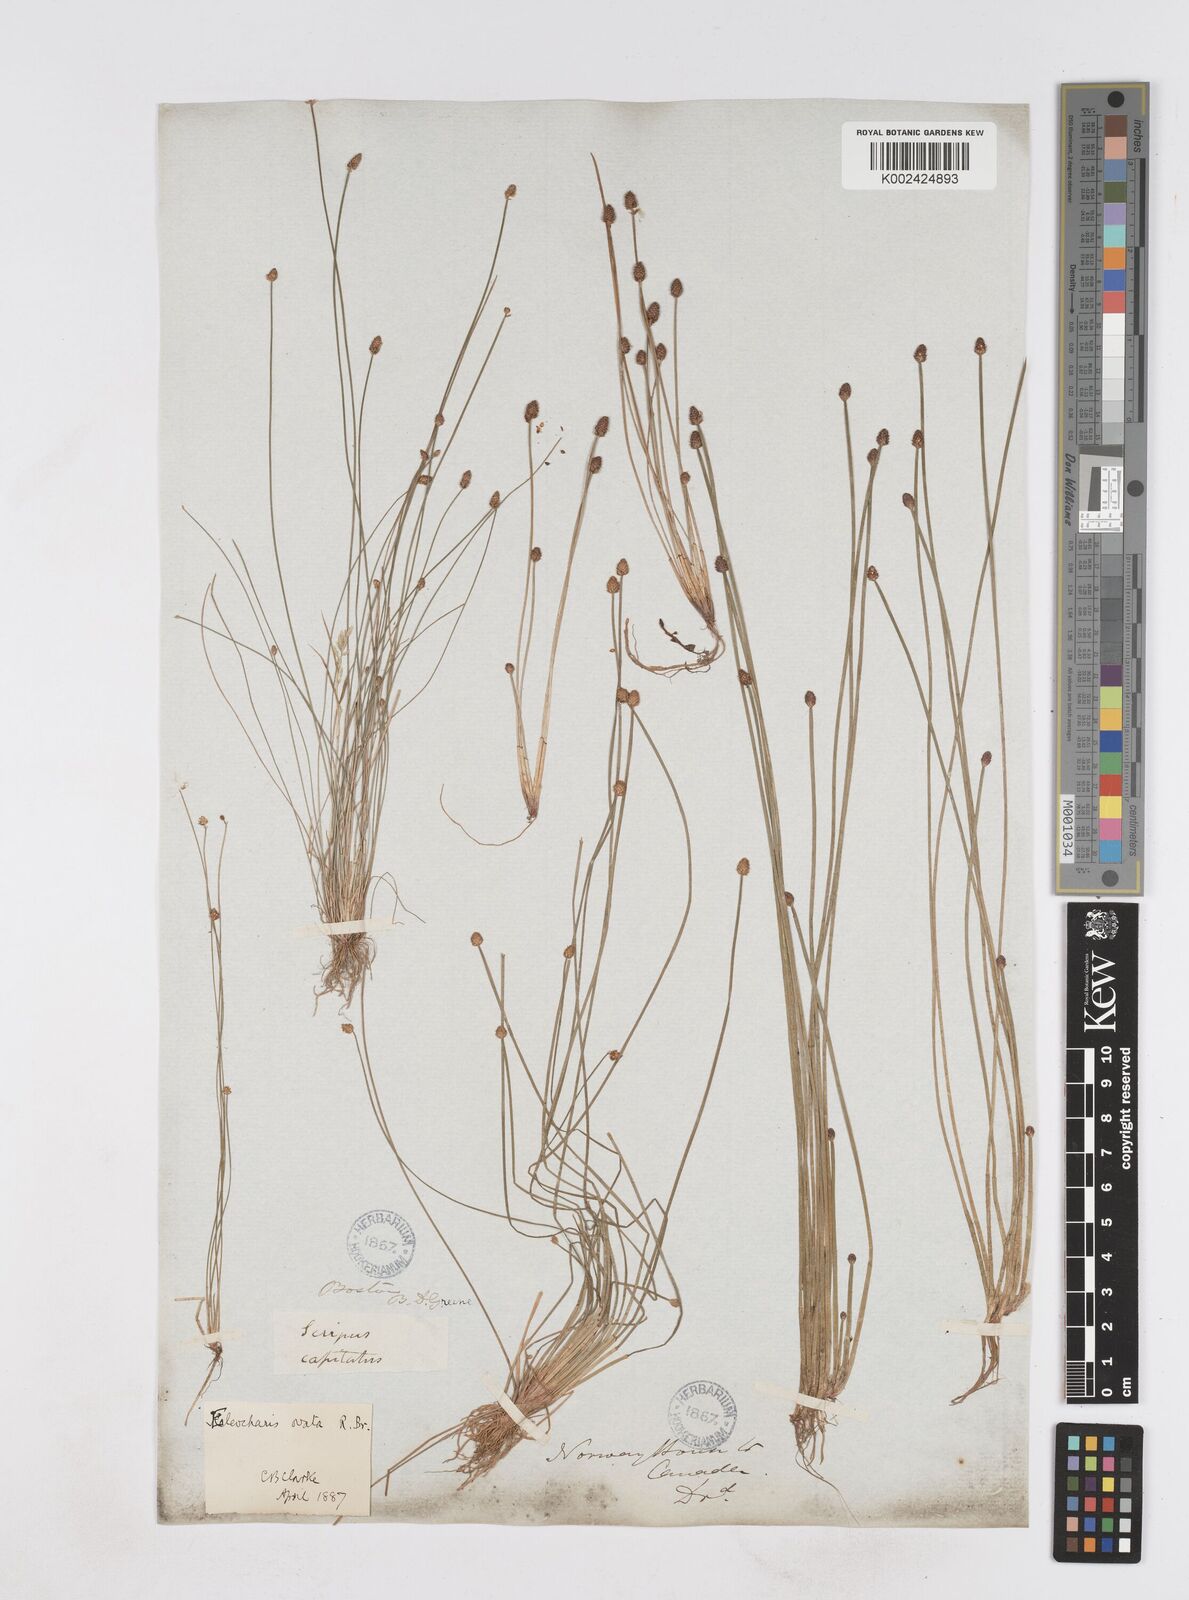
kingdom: Plantae
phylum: Tracheophyta
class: Liliopsida
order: Poales
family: Cyperaceae
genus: Eleocharis
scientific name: Eleocharis ovata
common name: Oval spike-rush
